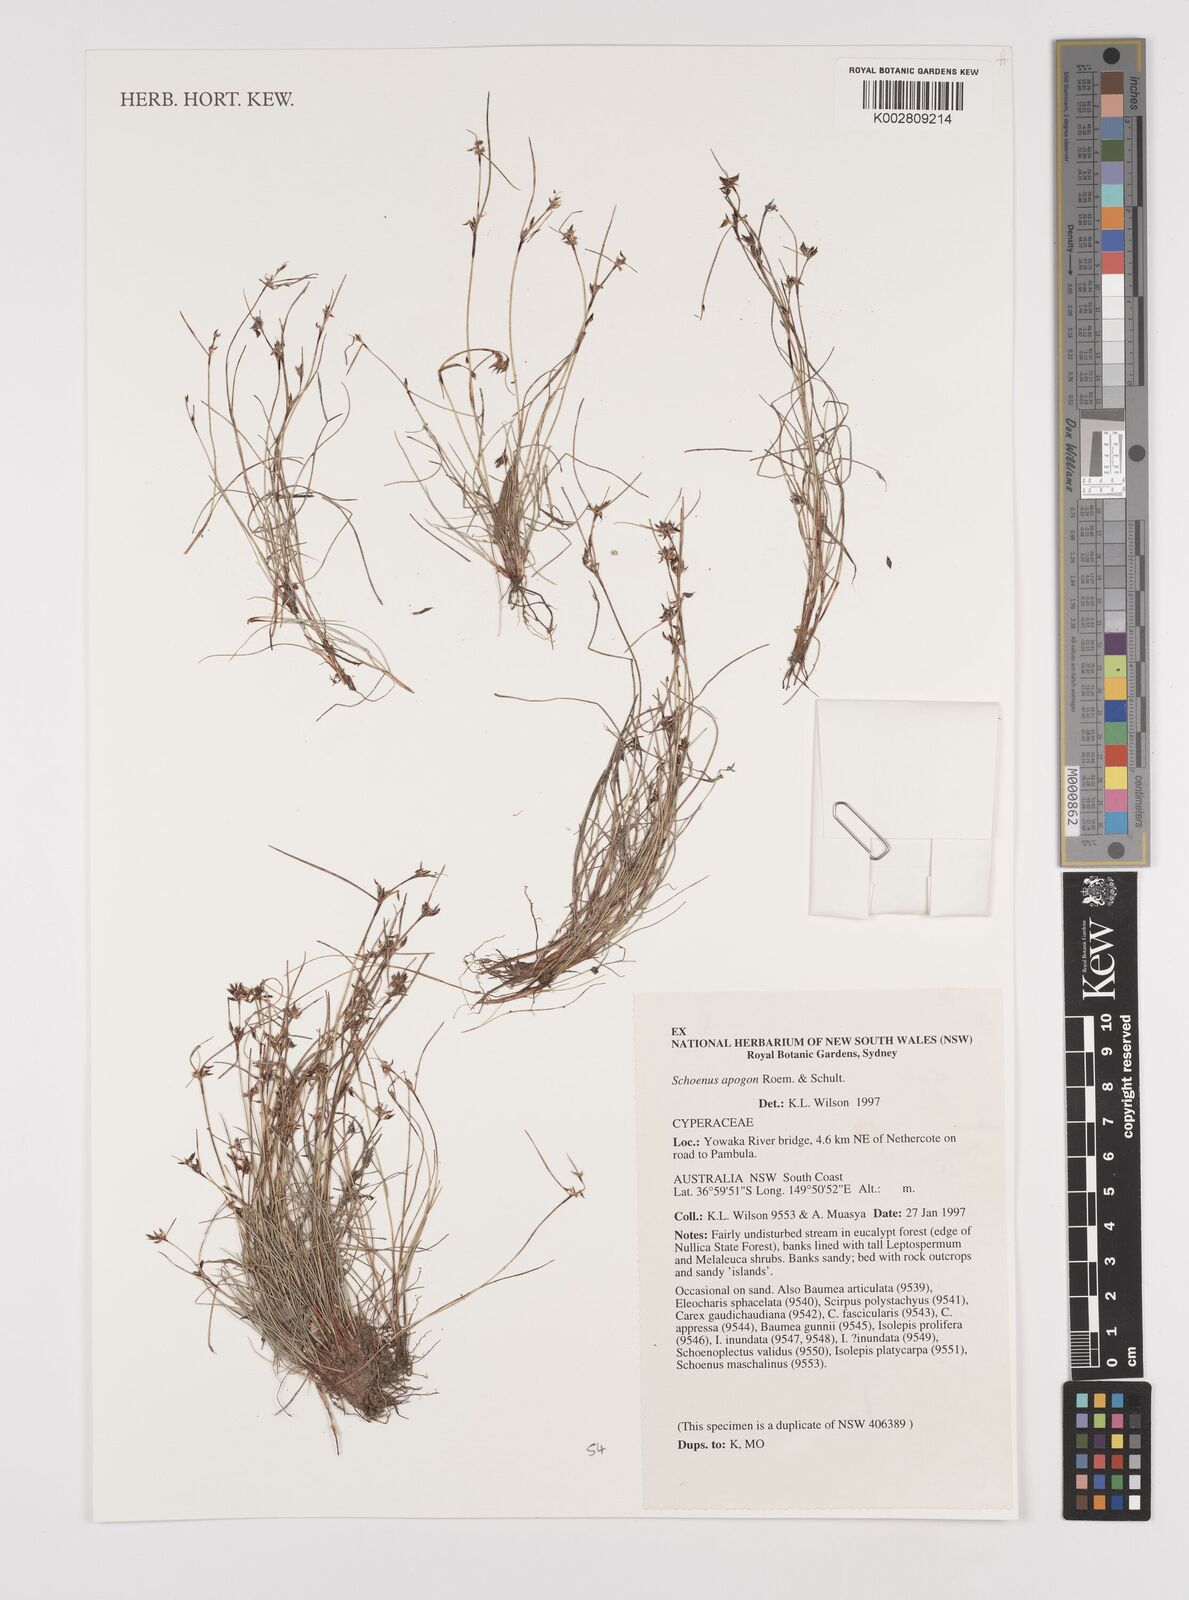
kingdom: Plantae
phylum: Tracheophyta
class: Liliopsida
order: Poales
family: Cyperaceae
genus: Schoenus
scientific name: Schoenus apogon
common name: Smooth bogrush
